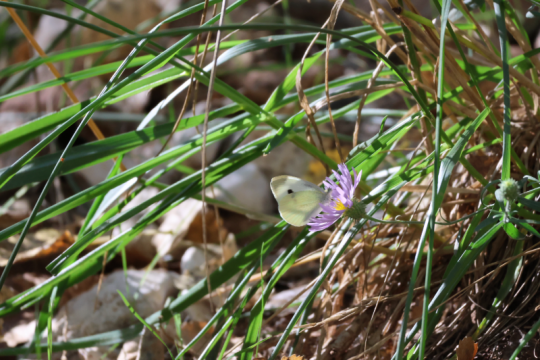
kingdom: Animalia
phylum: Arthropoda
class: Insecta
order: Lepidoptera
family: Pieridae
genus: Pieris
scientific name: Pieris rapae
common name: Cabbage White
